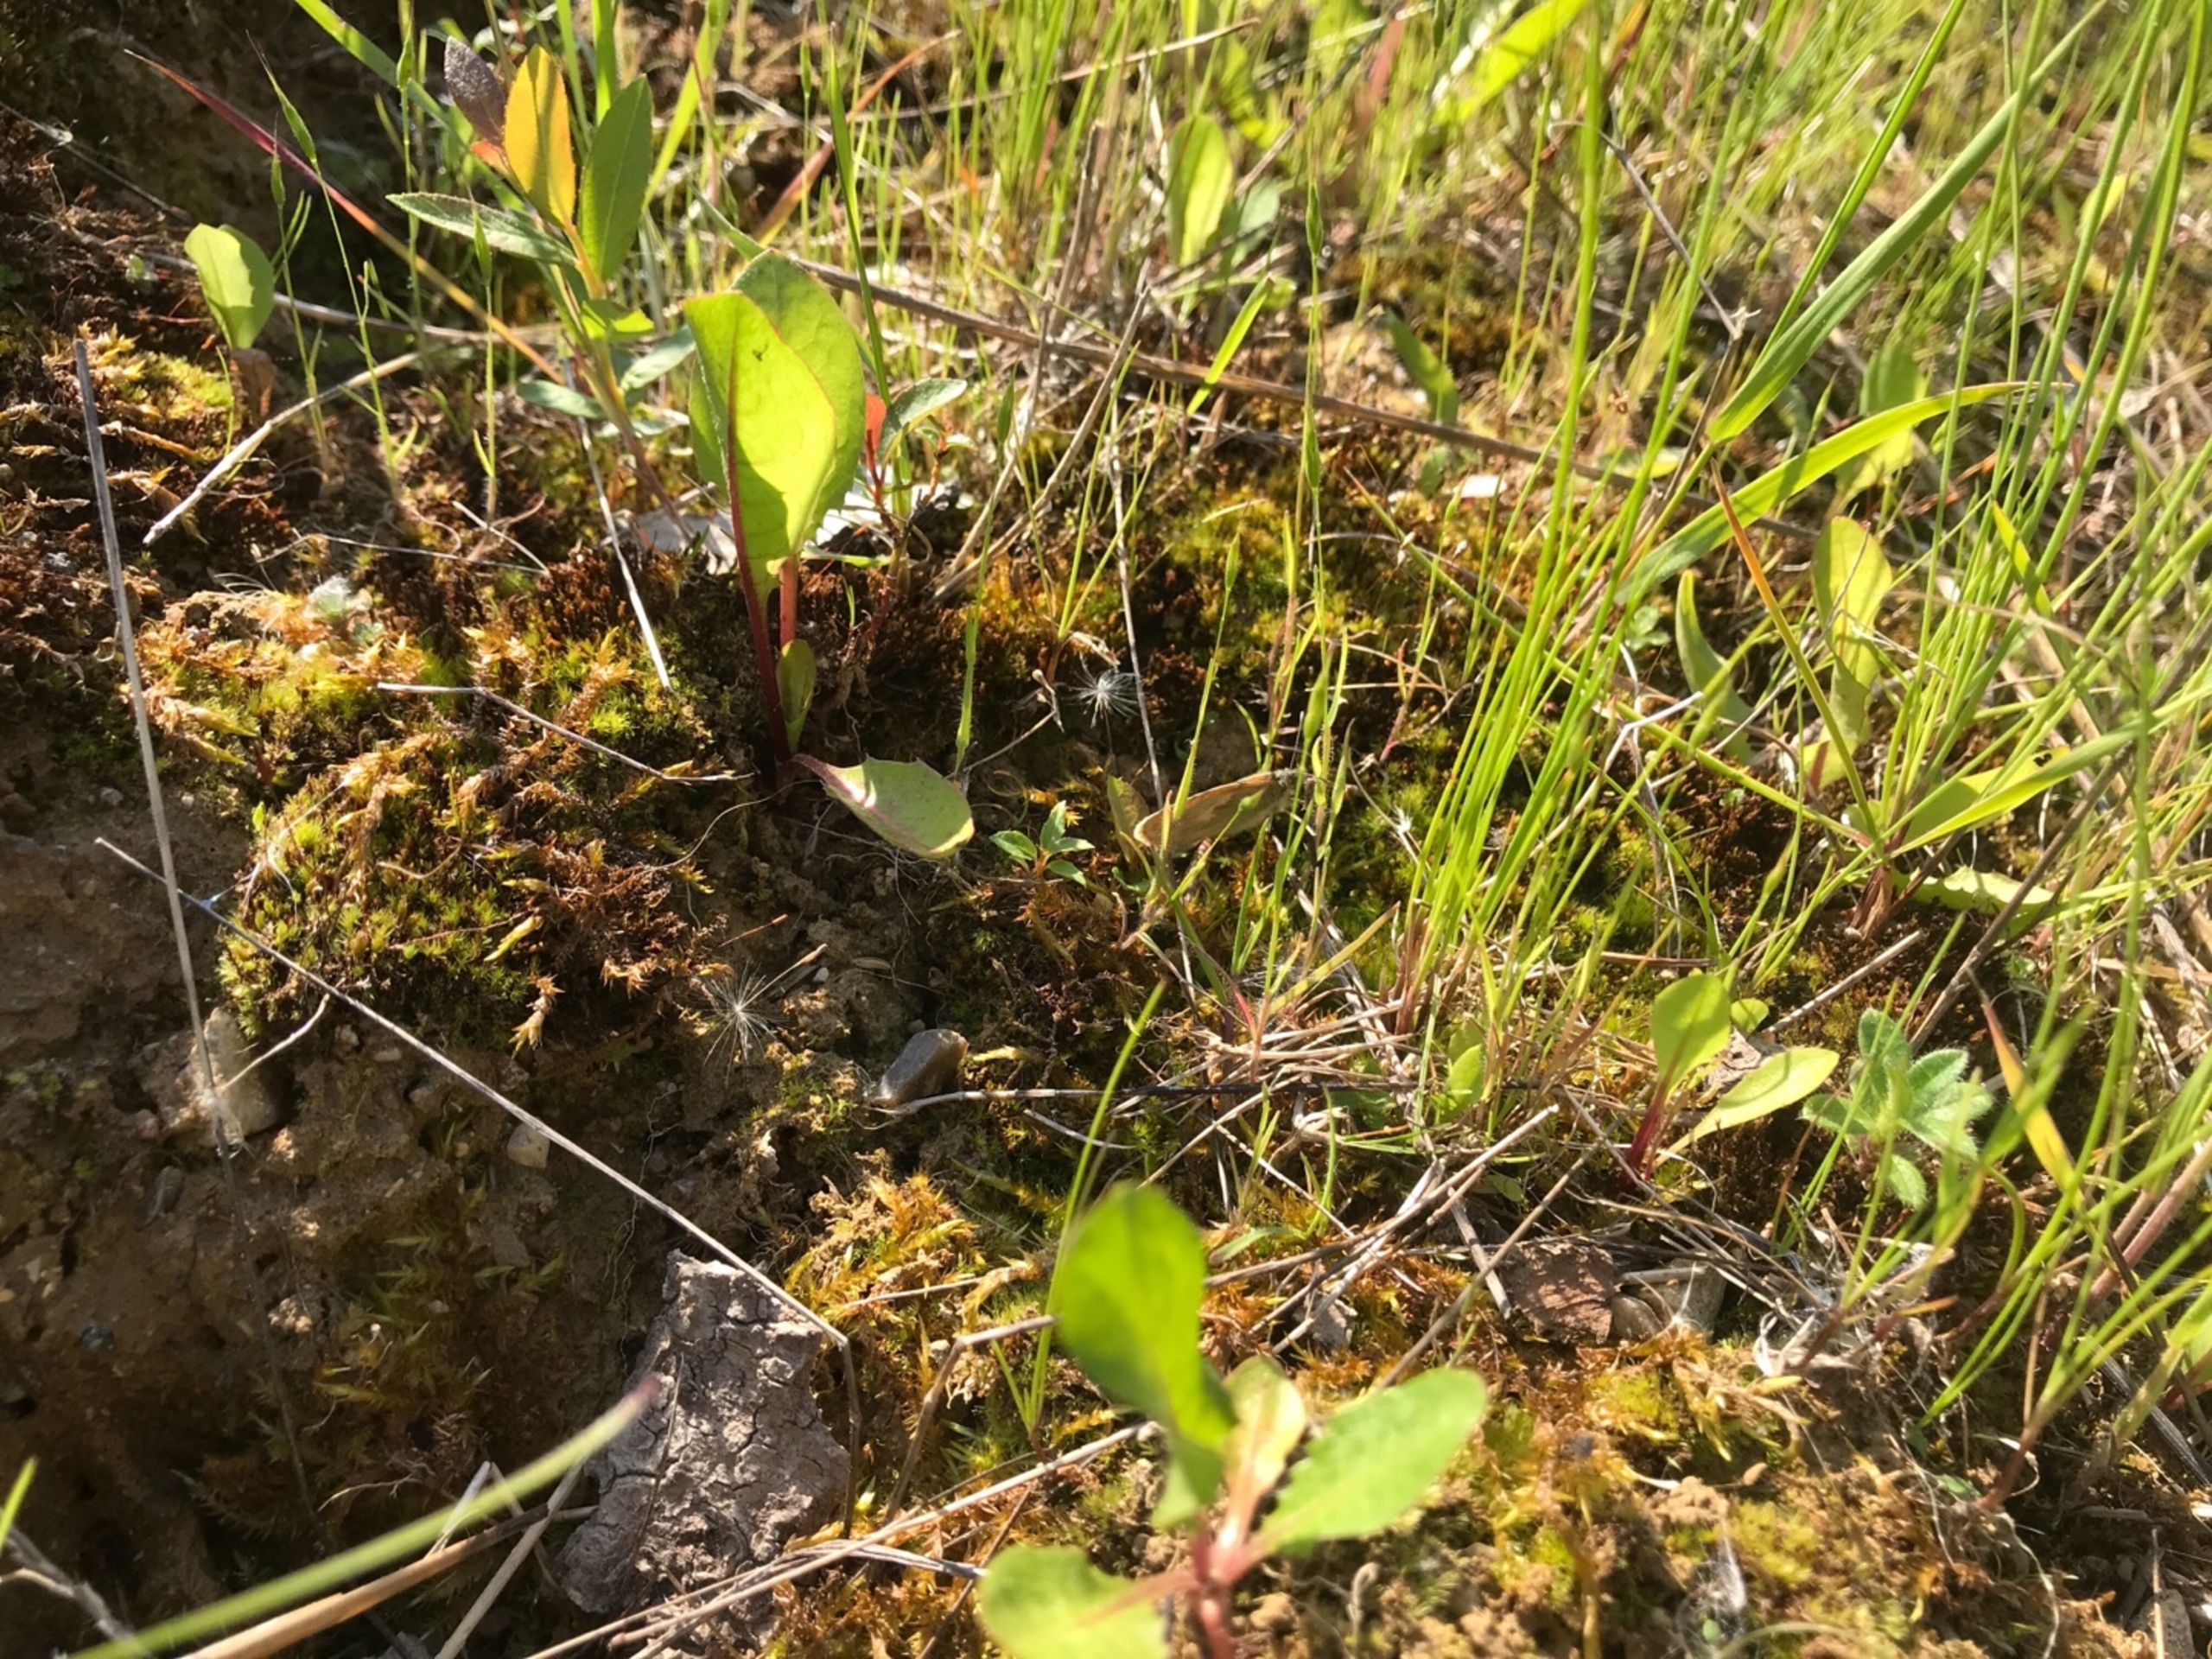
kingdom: Animalia
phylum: Arthropoda
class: Insecta
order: Lepidoptera
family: Nymphalidae
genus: Coenonympha
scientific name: Coenonympha pamphilus
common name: Okkergul randøje
